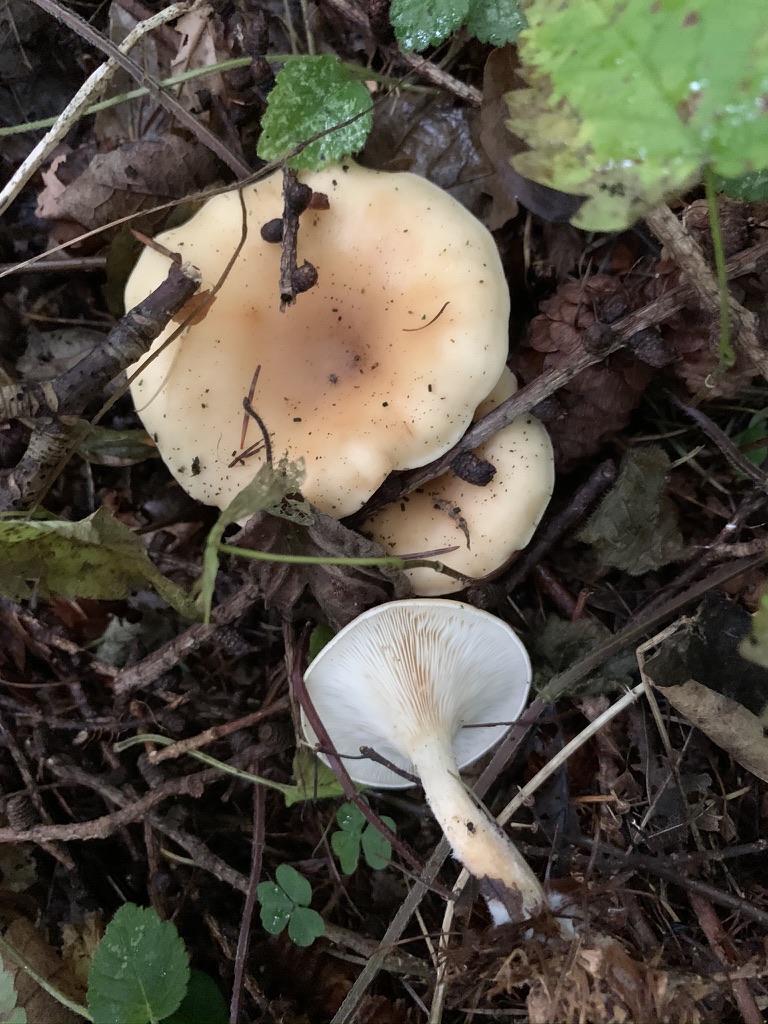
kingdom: Fungi
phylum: Basidiomycota
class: Agaricomycetes
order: Agaricales
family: Tricholomataceae
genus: Paralepista
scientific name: Paralepista flaccida
